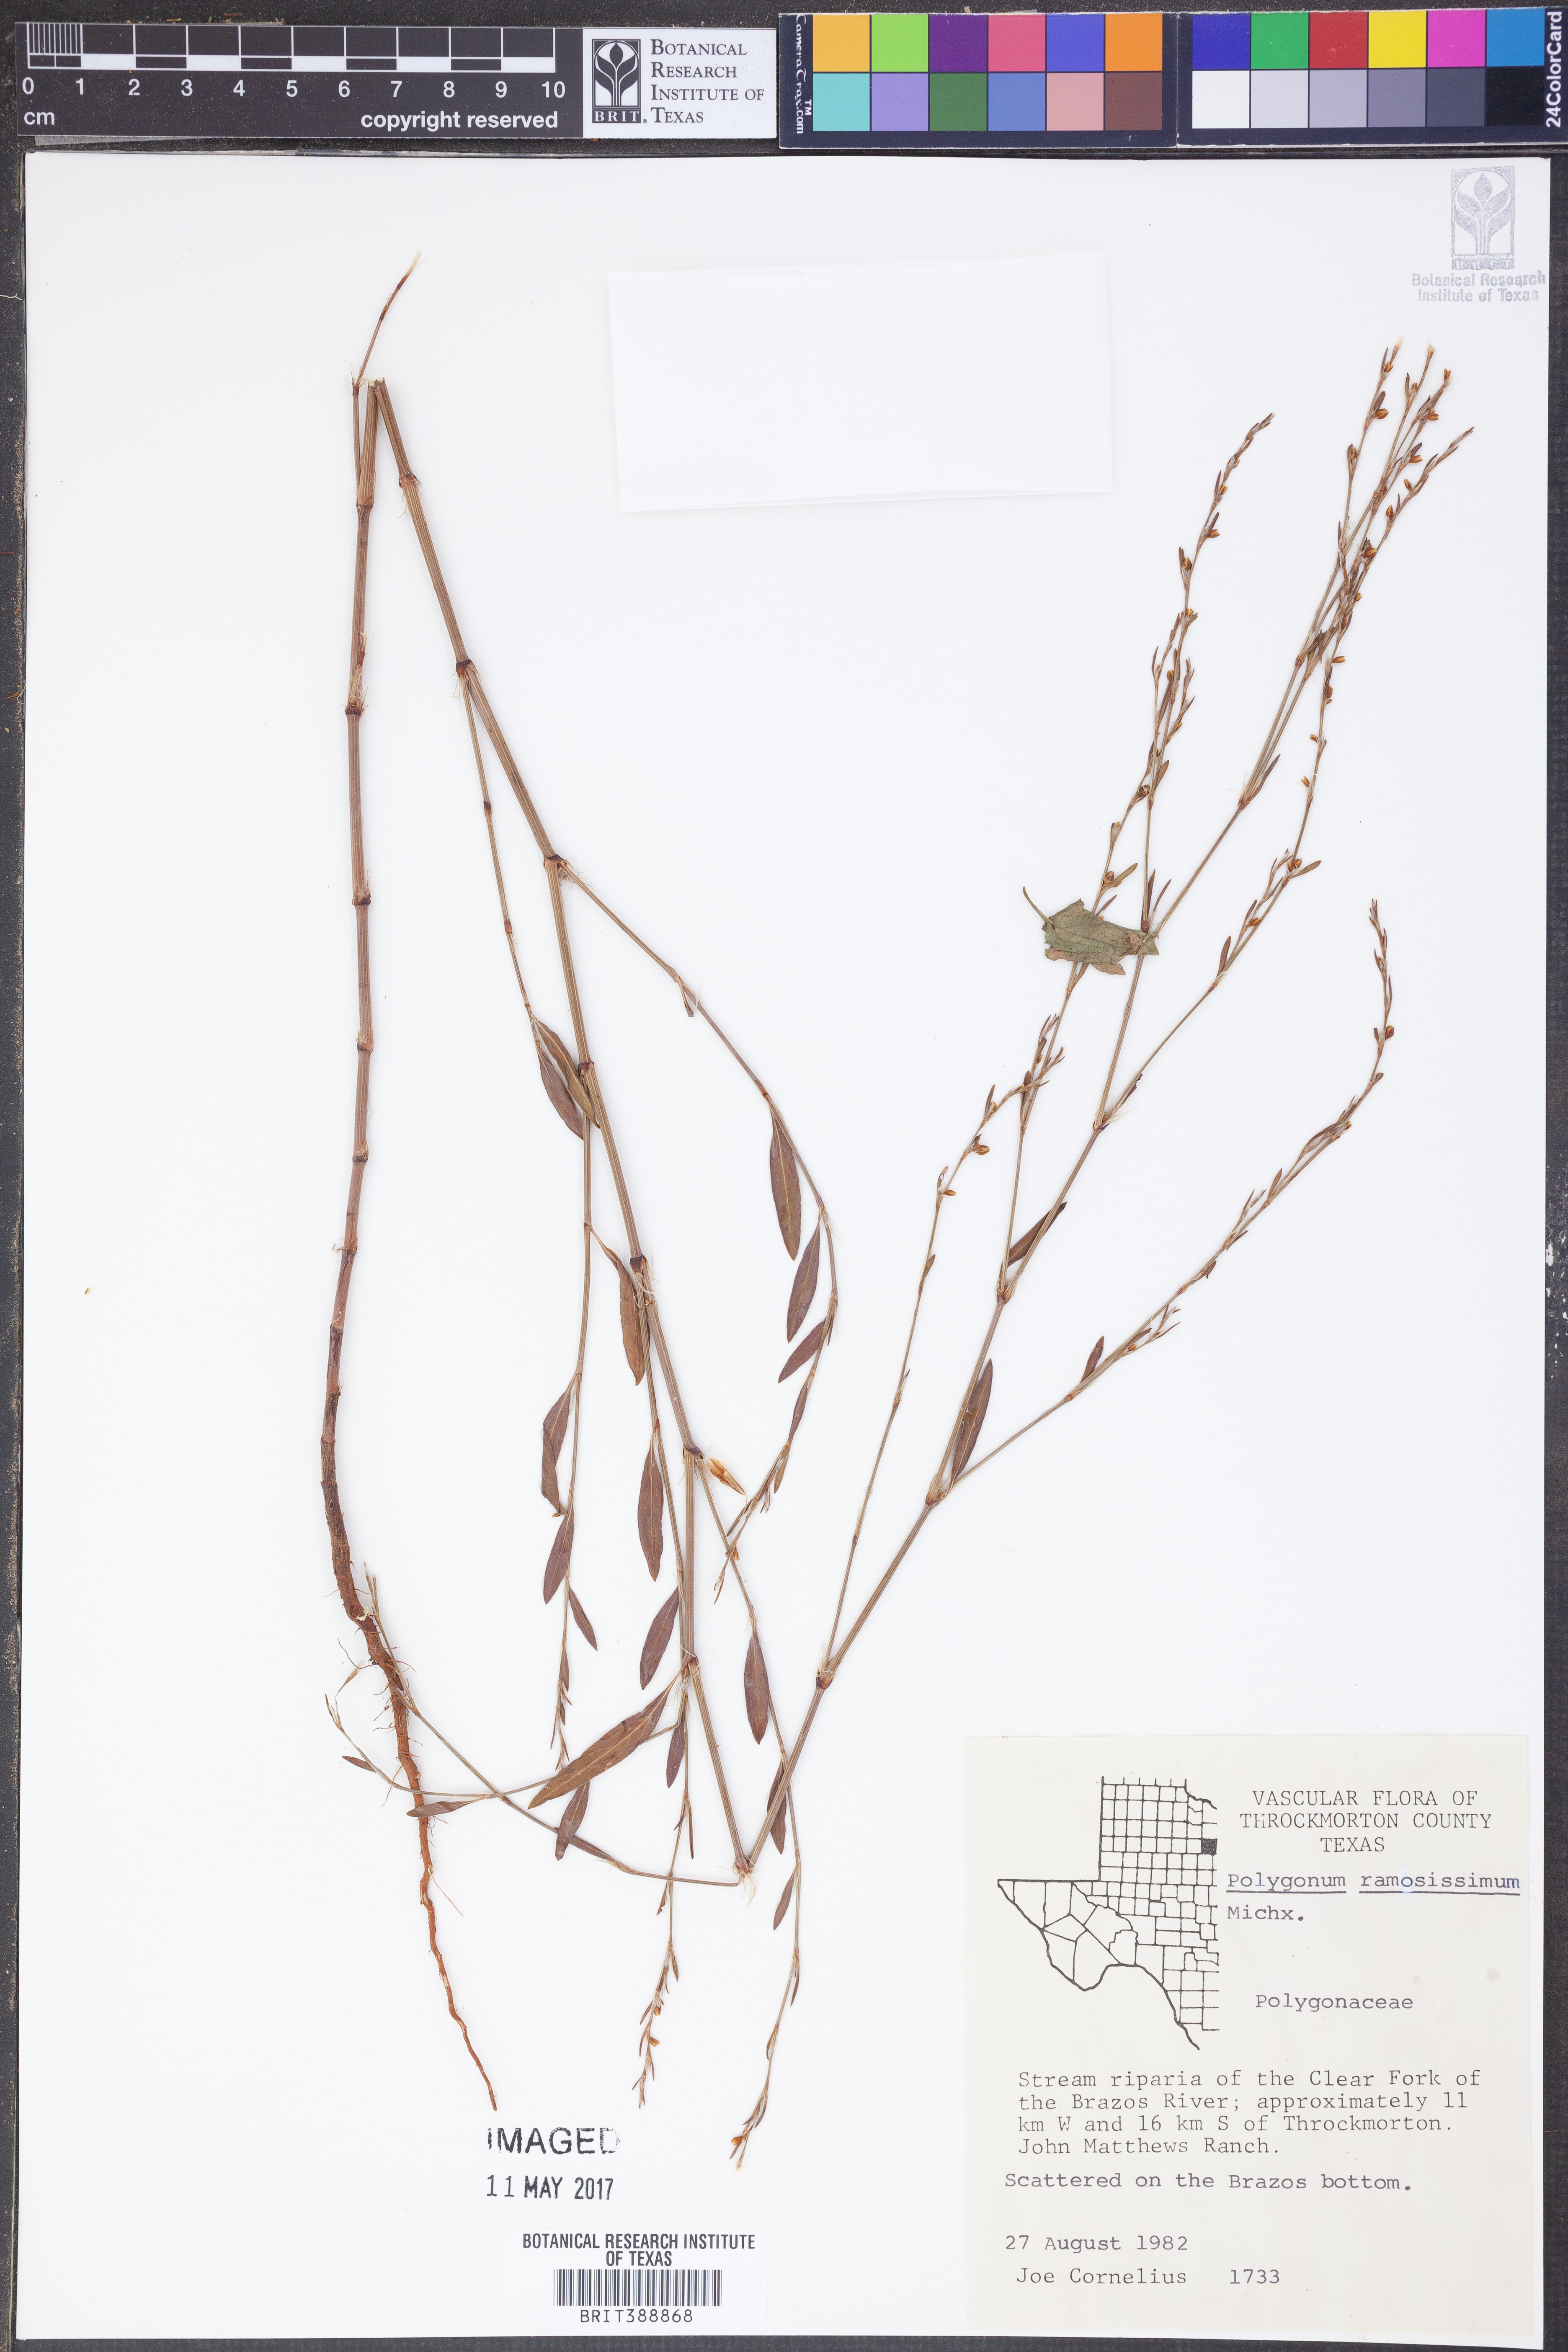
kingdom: Plantae
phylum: Tracheophyta
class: Magnoliopsida
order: Caryophyllales
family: Polygonaceae
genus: Polygonum
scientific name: Polygonum ramosissimum
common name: Bushy knotweed
